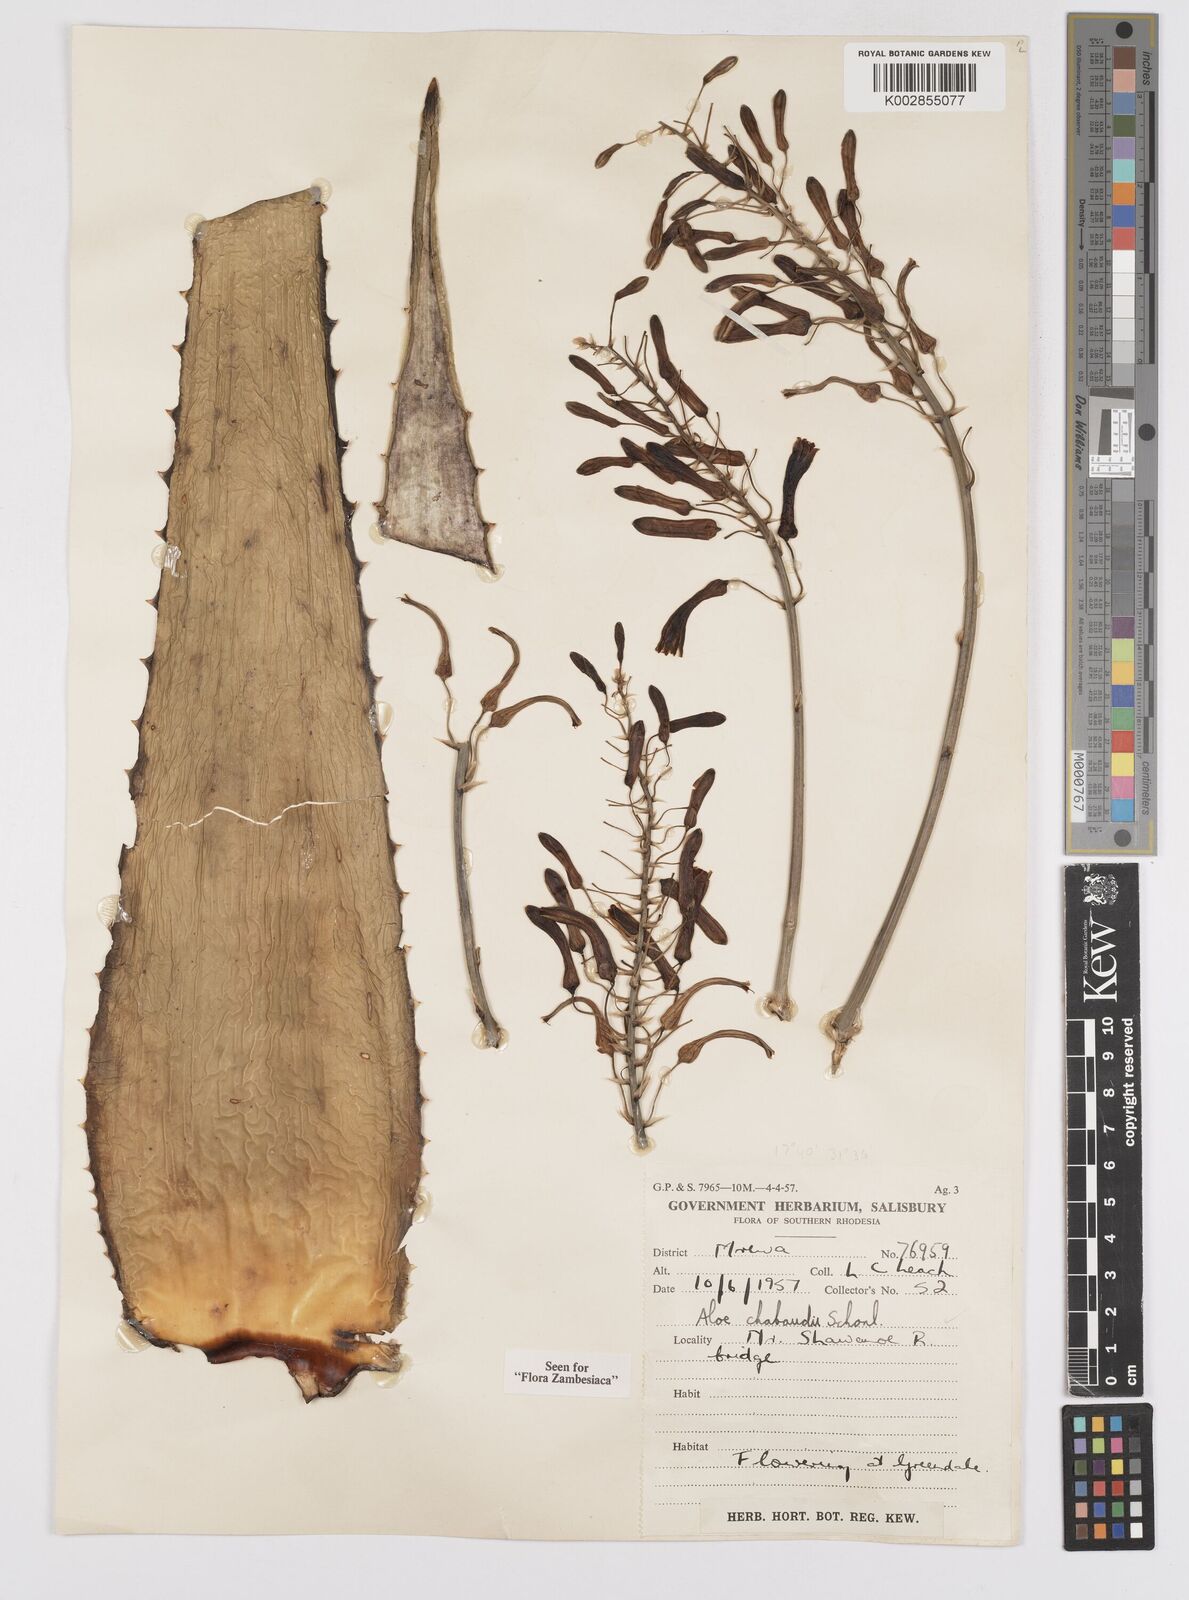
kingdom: Plantae
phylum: Tracheophyta
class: Liliopsida
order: Asparagales
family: Asphodelaceae
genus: Aloe
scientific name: Aloe chabaudii
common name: Chabaud's aloe
